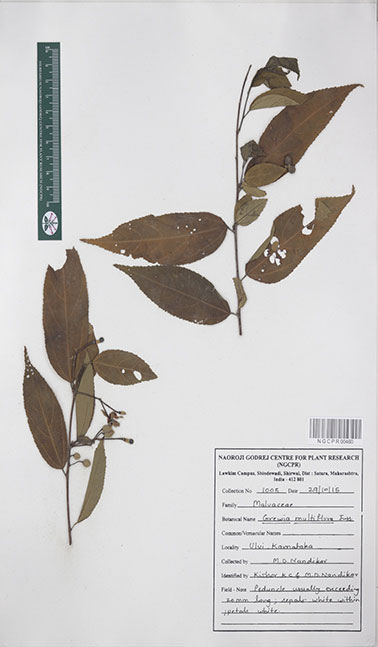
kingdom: Plantae
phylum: Tracheophyta
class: Magnoliopsida
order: Malvales
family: Malvaceae
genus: Grewia
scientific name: Grewia multiflora
